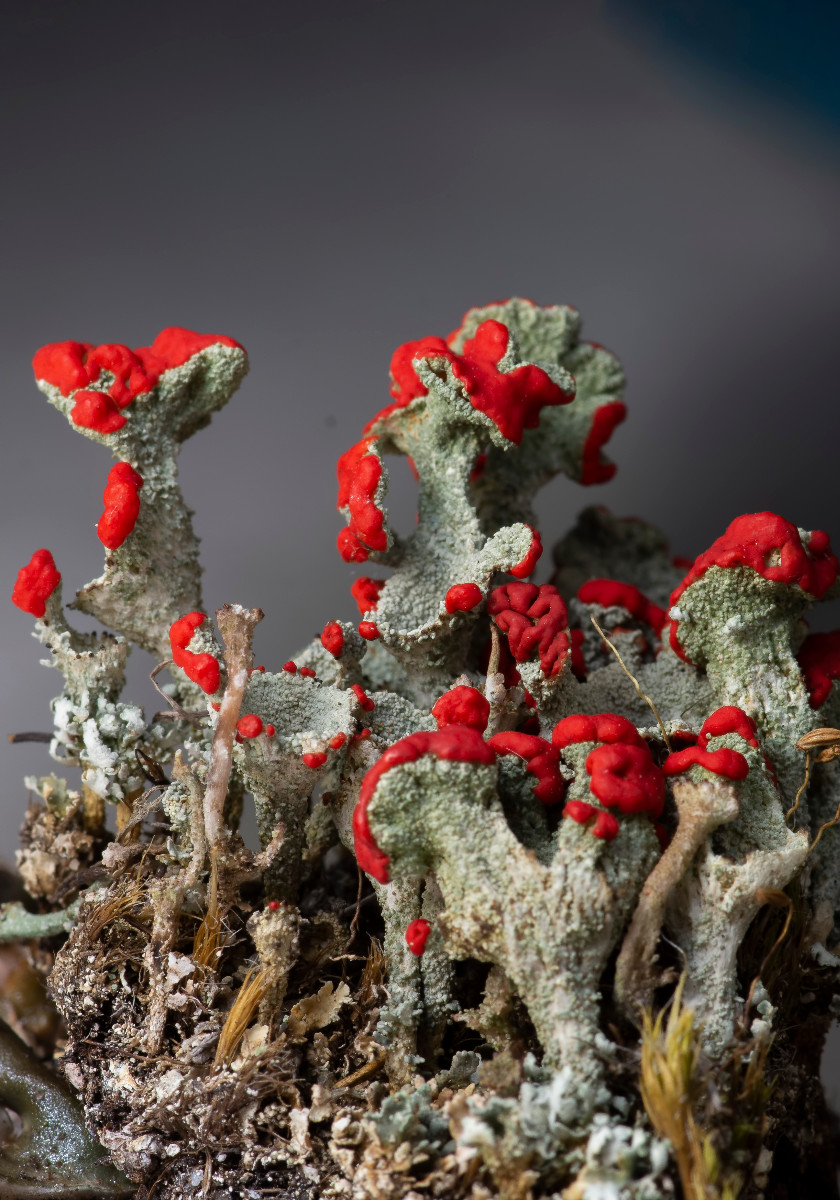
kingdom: Fungi
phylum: Ascomycota
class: Lecanoromycetes
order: Lecanorales
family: Cladoniaceae
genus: Cladonia
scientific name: Cladonia diversa
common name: rød bægerlav
